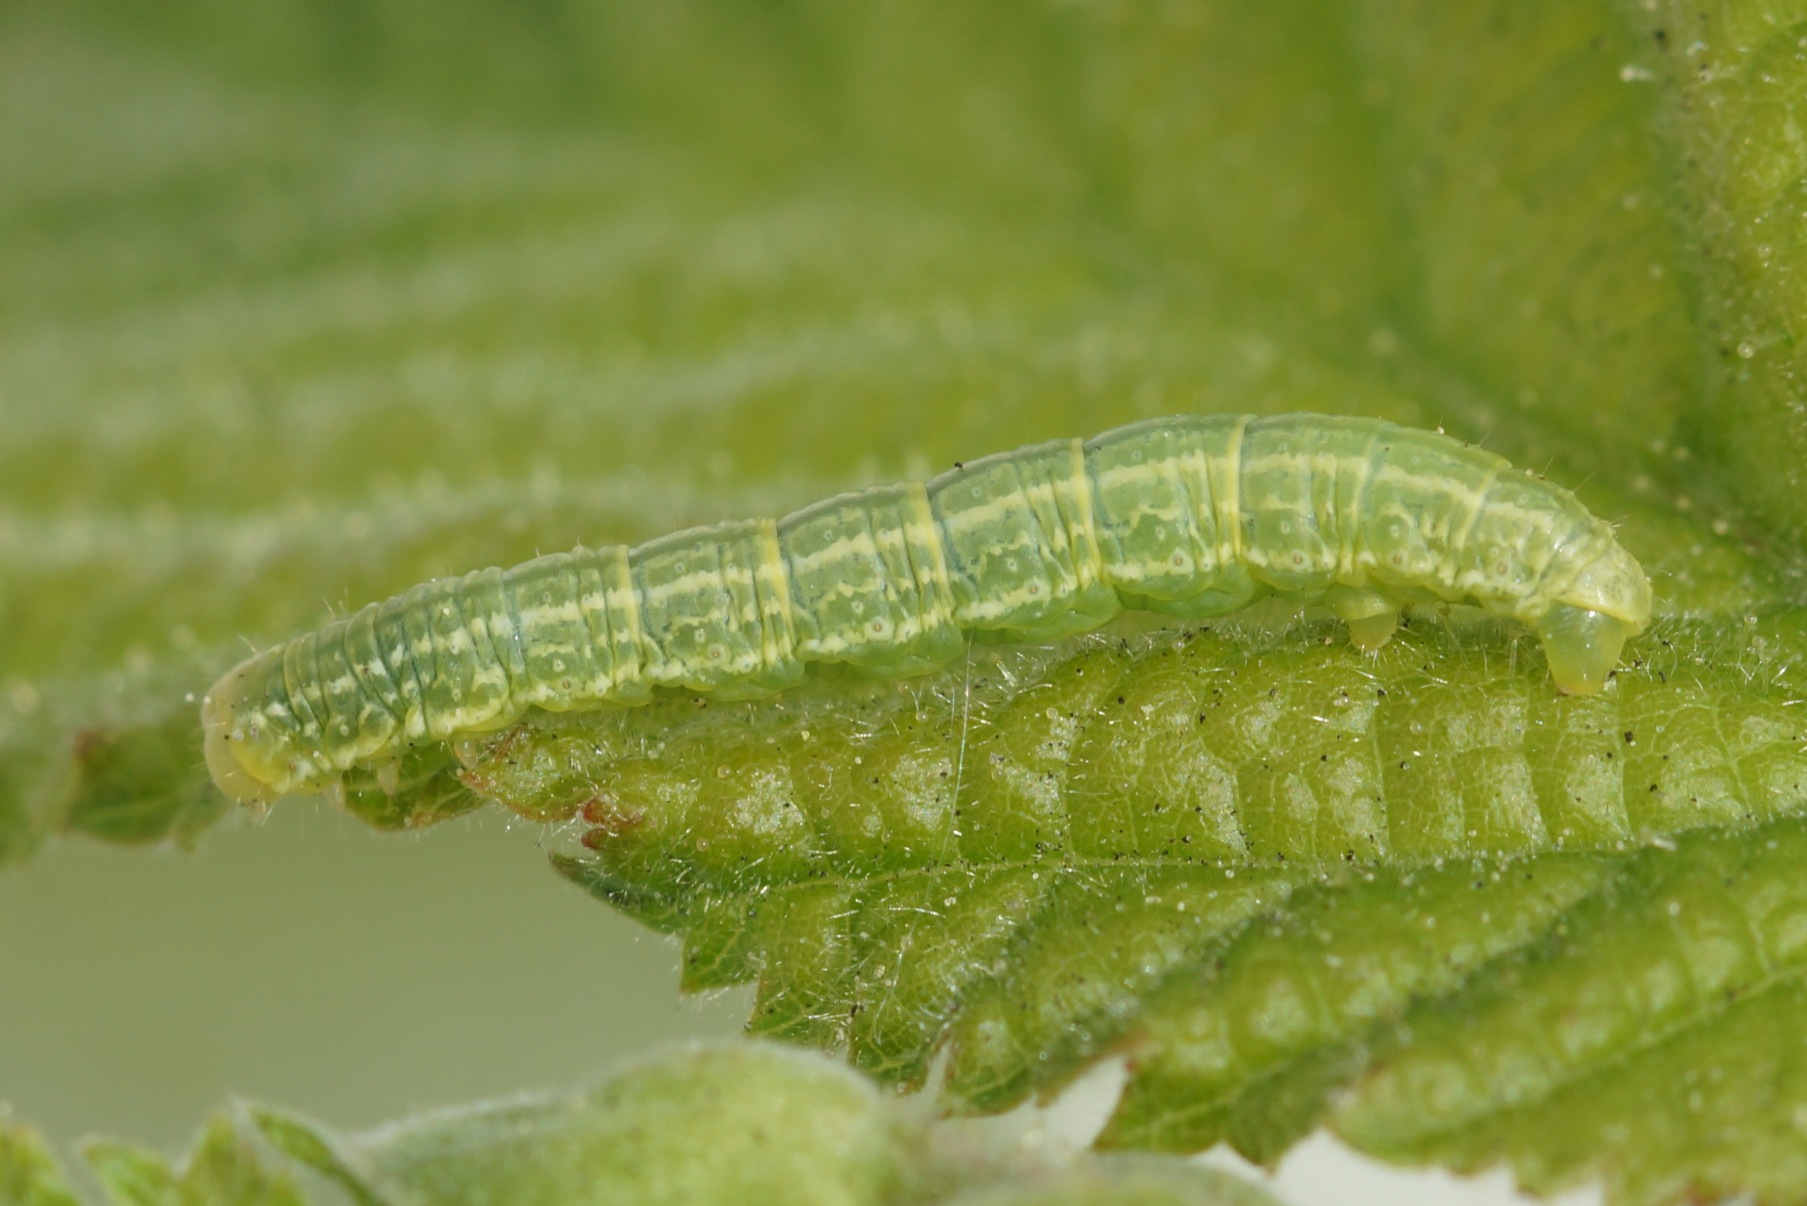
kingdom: Animalia
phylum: Arthropoda
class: Insecta
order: Lepidoptera
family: Geometridae
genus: Operophtera
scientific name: Operophtera brumata
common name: Lille frostmåler
